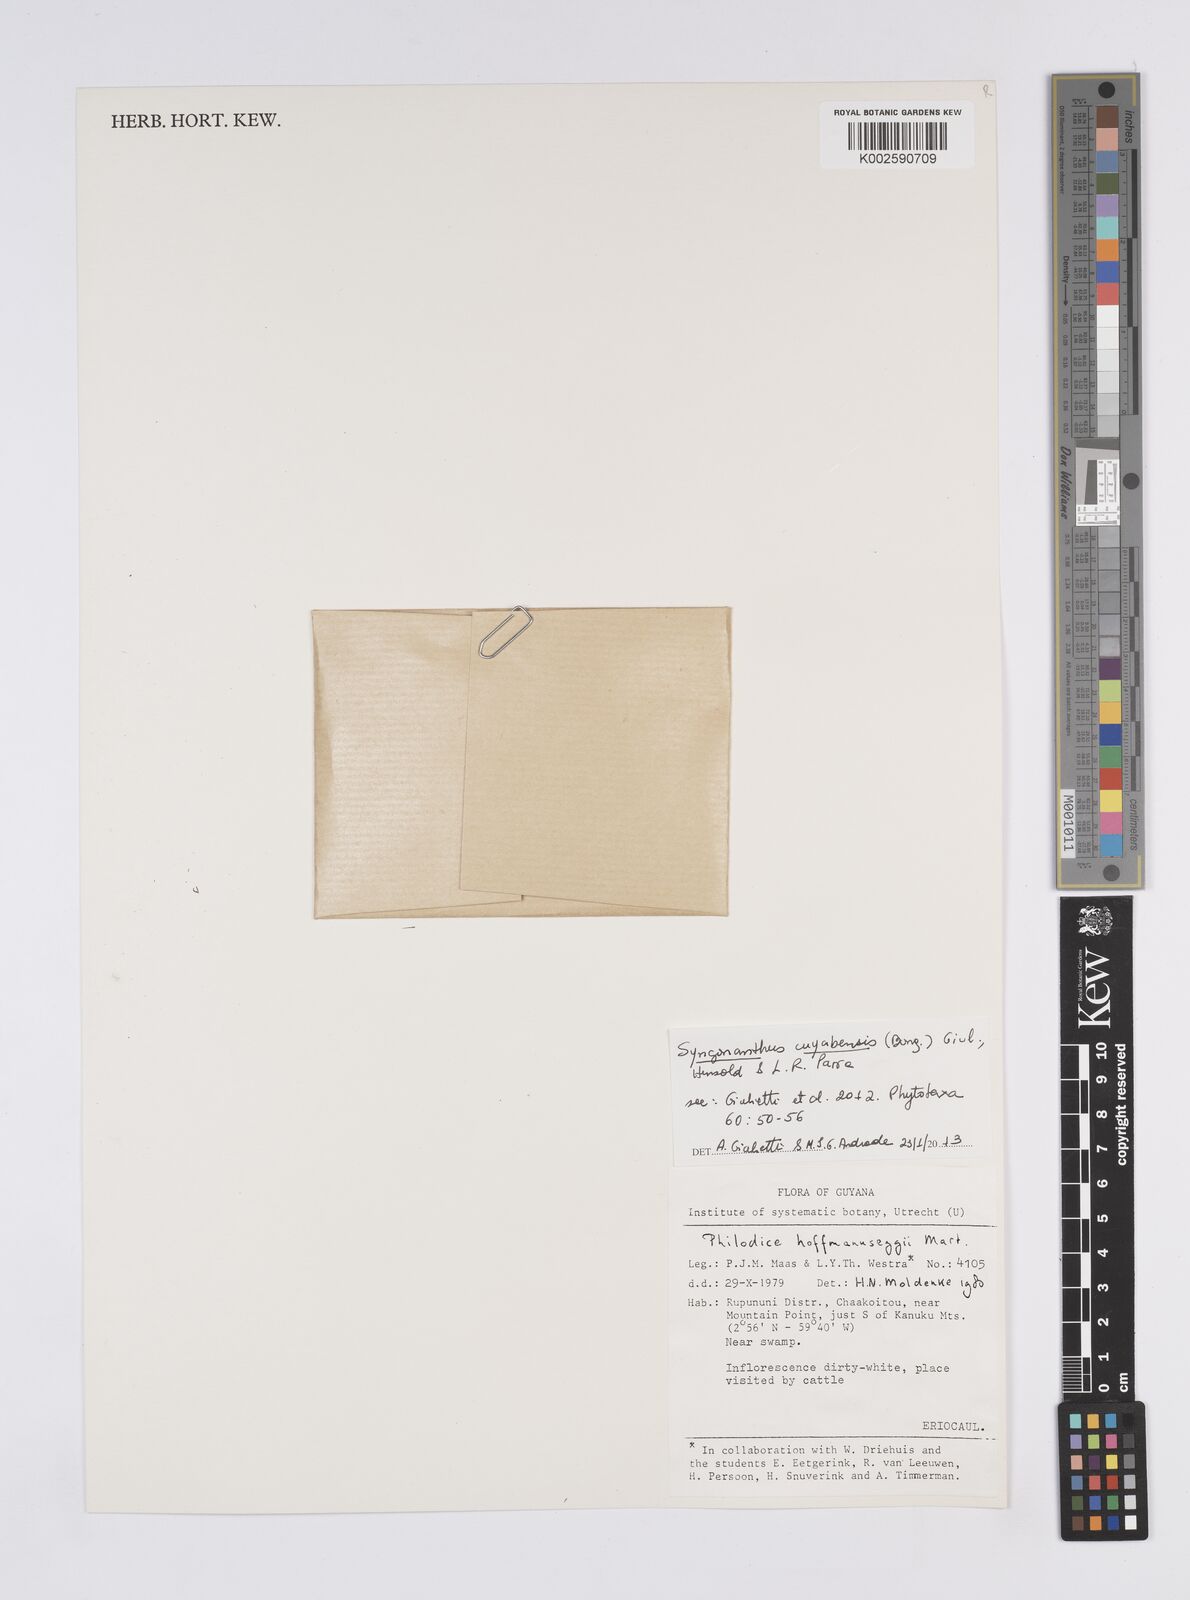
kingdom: Plantae
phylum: Tracheophyta
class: Liliopsida
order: Poales
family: Eriocaulaceae
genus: Syngonanthus
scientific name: Syngonanthus cuyabensis
